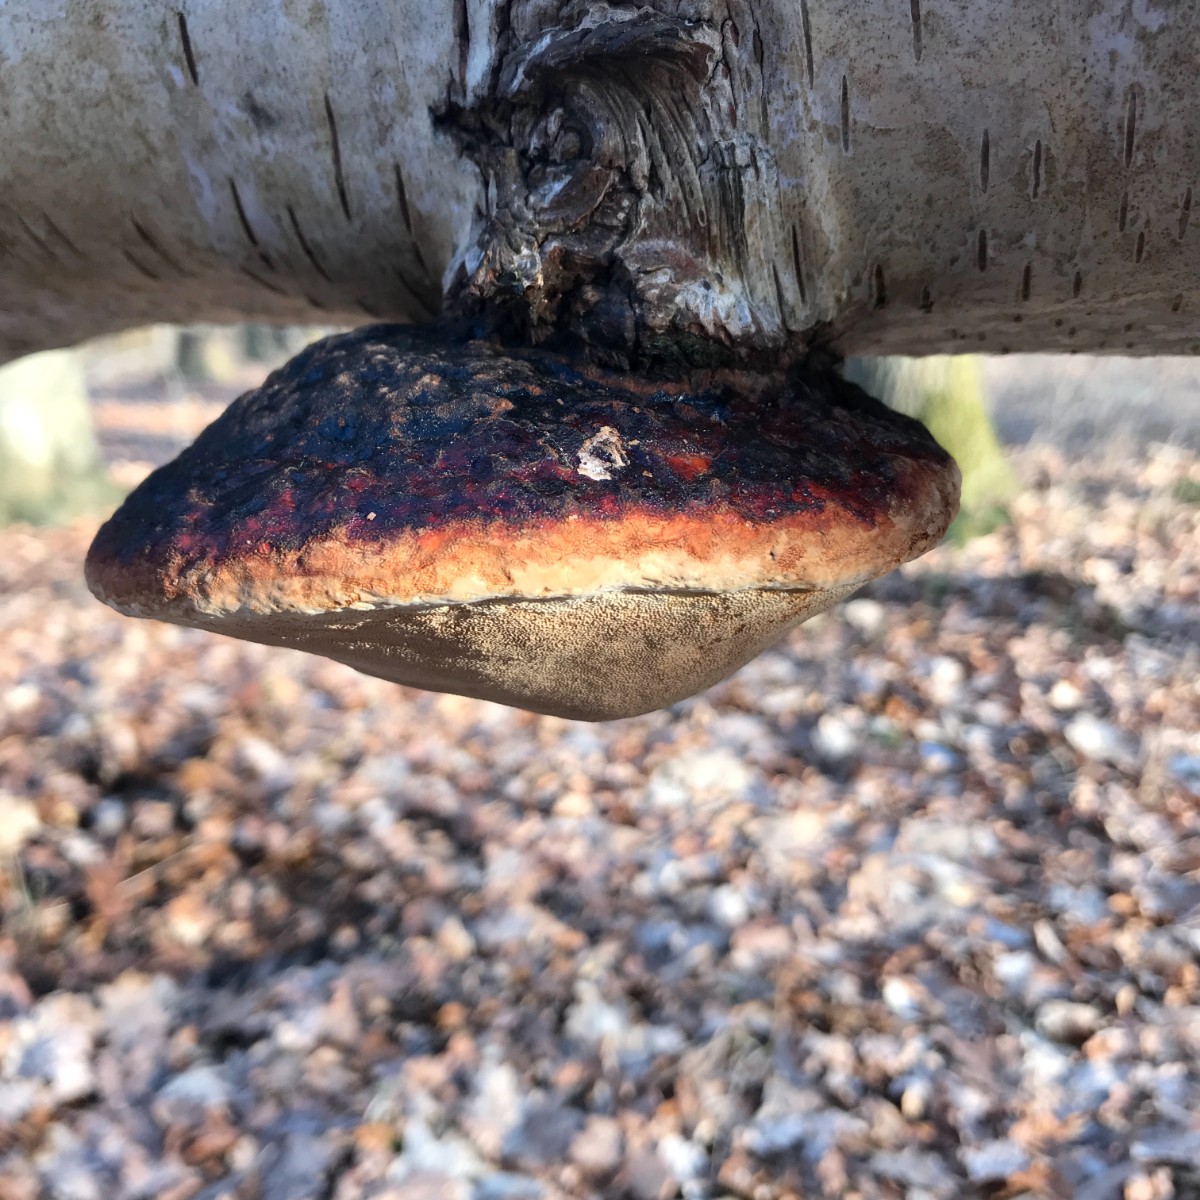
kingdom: Fungi
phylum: Basidiomycota
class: Agaricomycetes
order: Polyporales
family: Fomitopsidaceae
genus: Fomitopsis
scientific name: Fomitopsis pinicola
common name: randbæltet hovporesvamp
